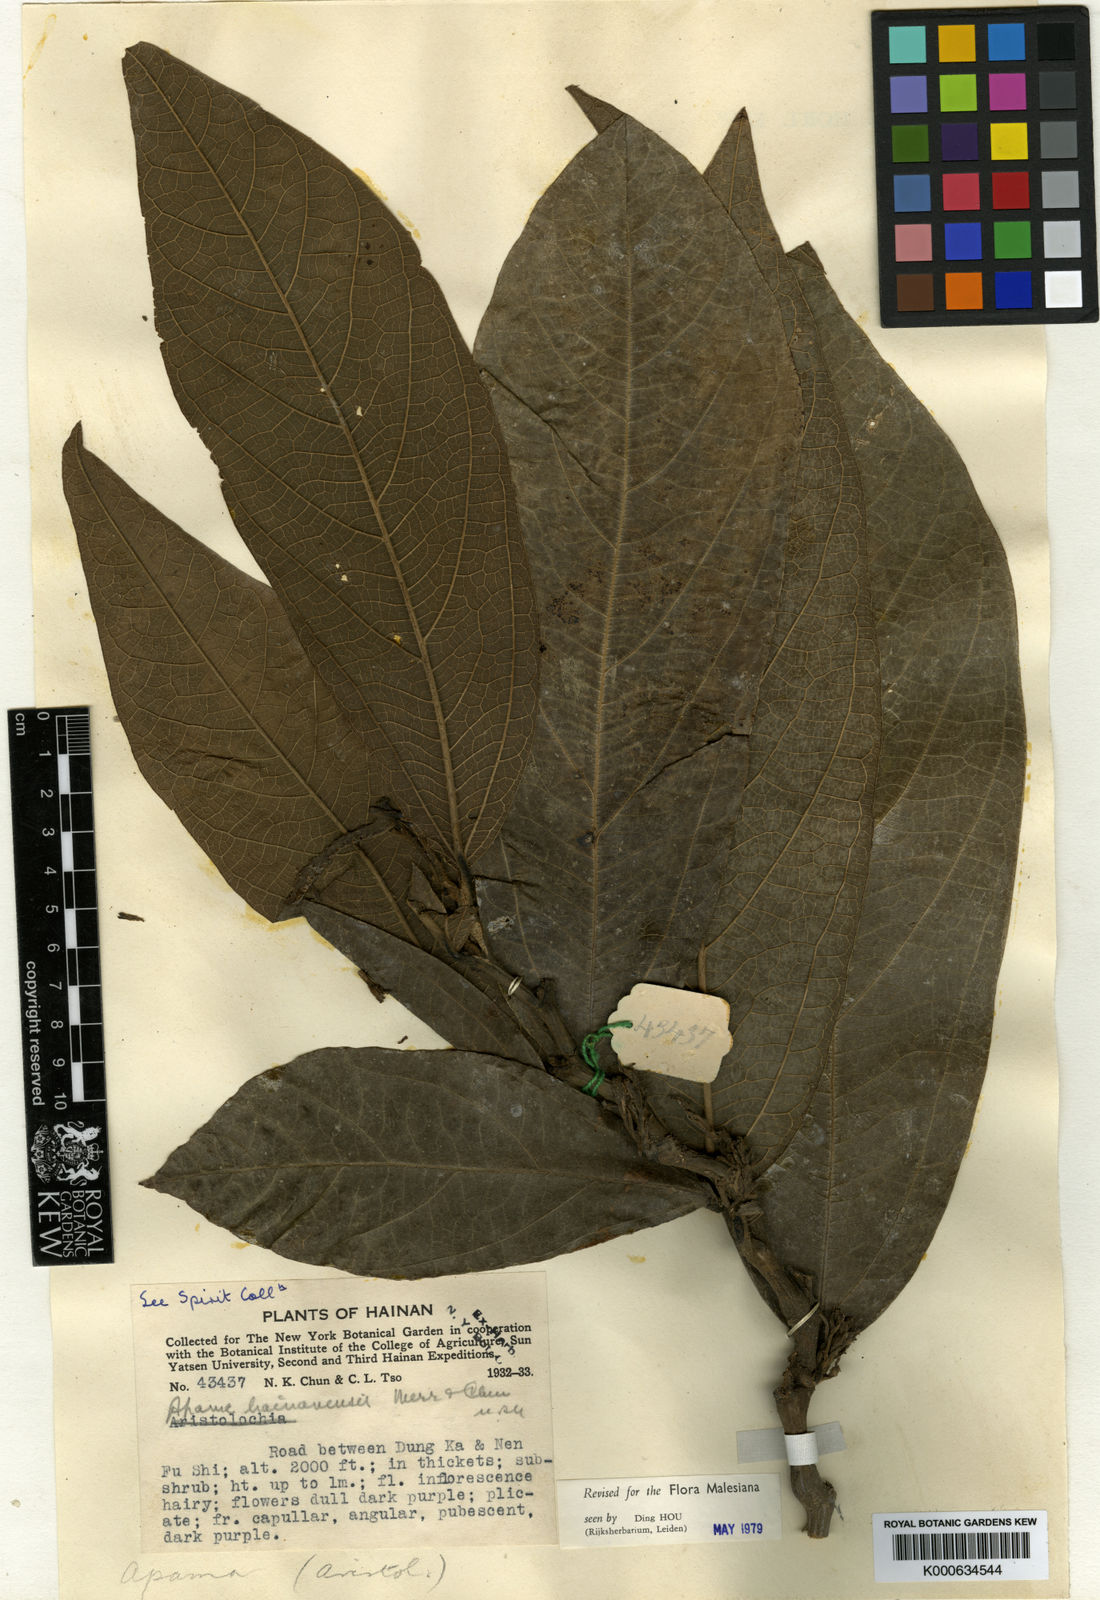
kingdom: Plantae
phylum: Tracheophyta
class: Magnoliopsida
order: Piperales
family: Aristolochiaceae
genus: Thottea
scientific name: Thottea hainanensis
